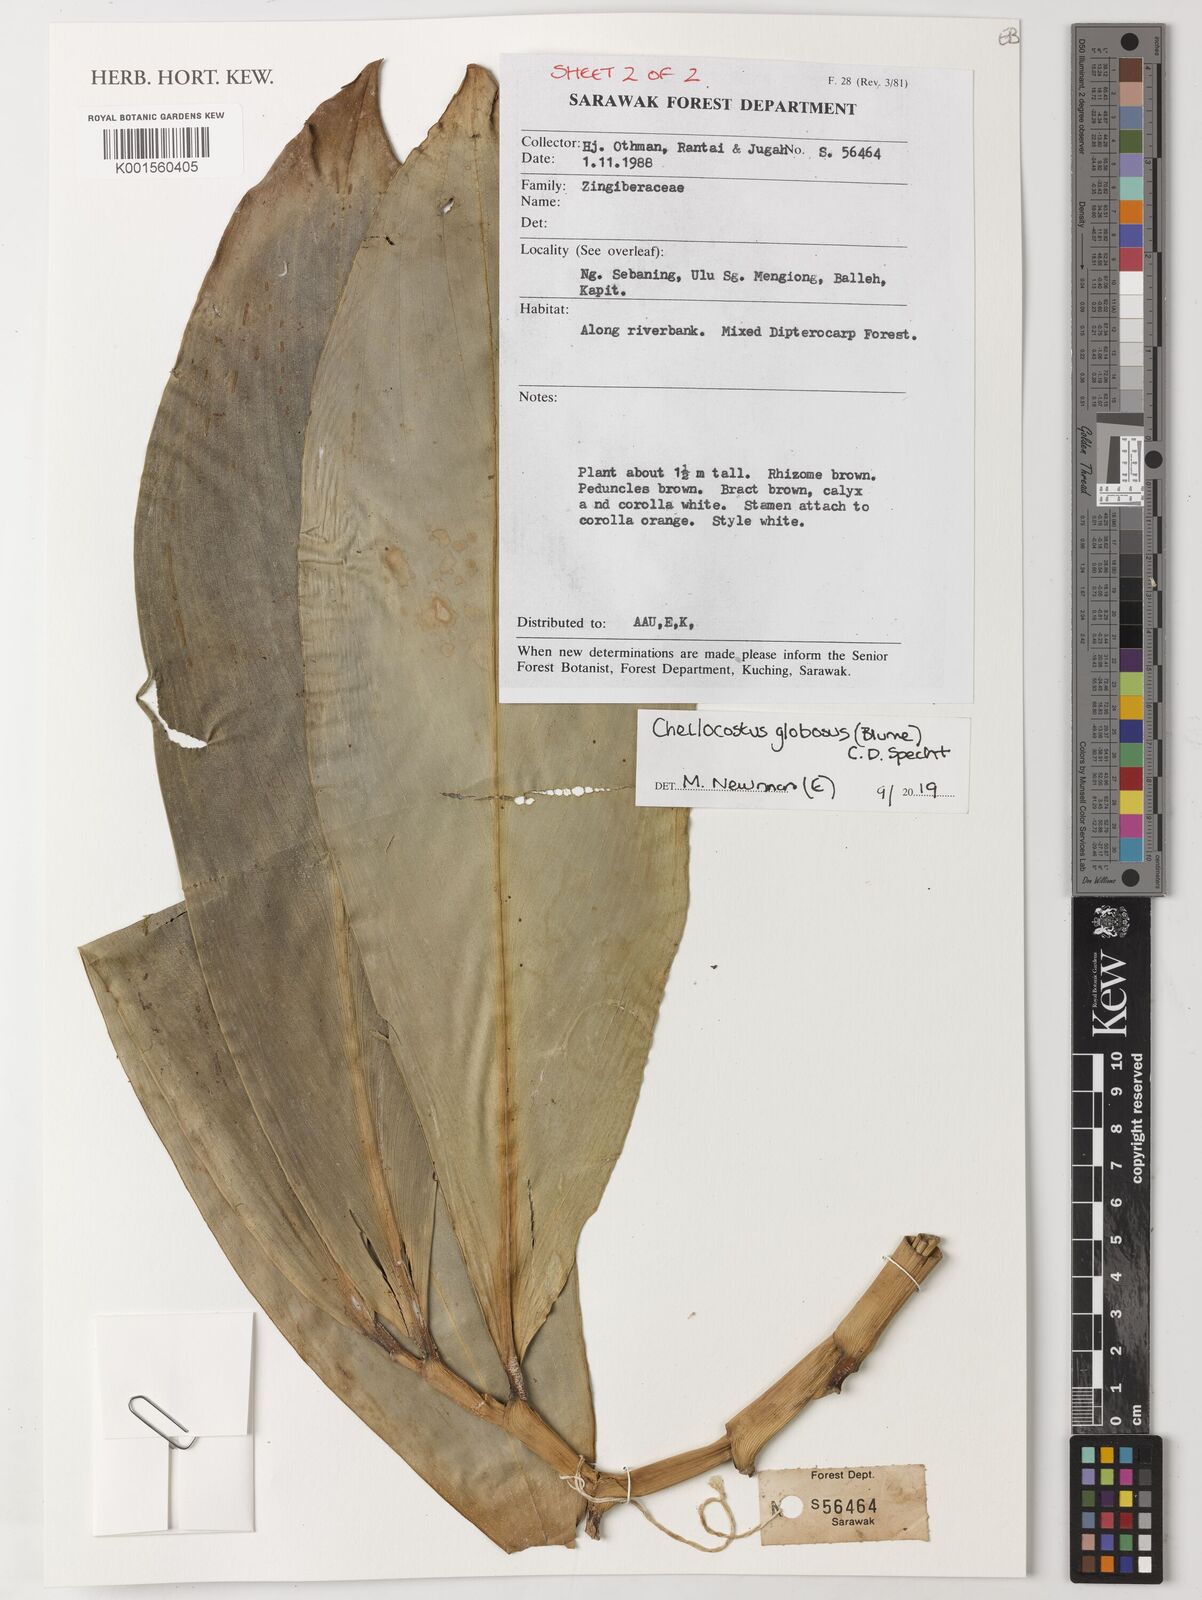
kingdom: Plantae
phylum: Tracheophyta
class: Liliopsida
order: Zingiberales
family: Costaceae
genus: Hellenia
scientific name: Hellenia globosa
